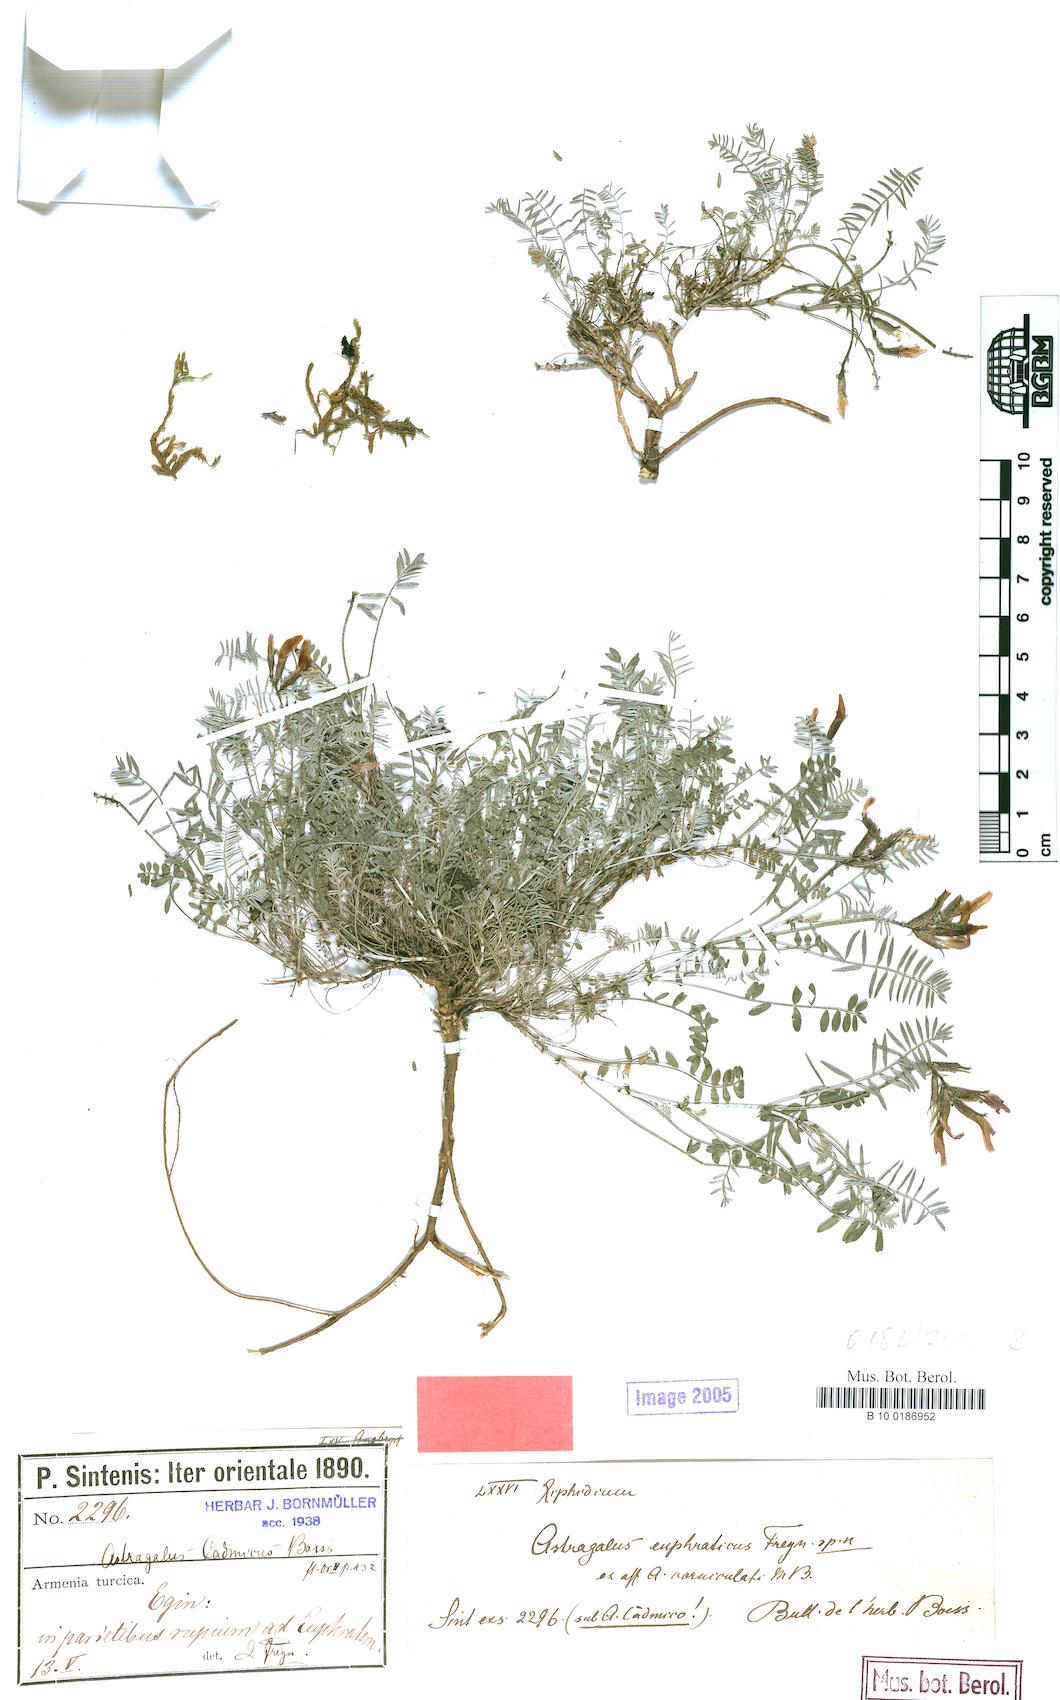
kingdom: Plantae
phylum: Tracheophyta
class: Magnoliopsida
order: Fabales
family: Fabaceae
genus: Astragalus
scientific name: Astragalus cadmicus
